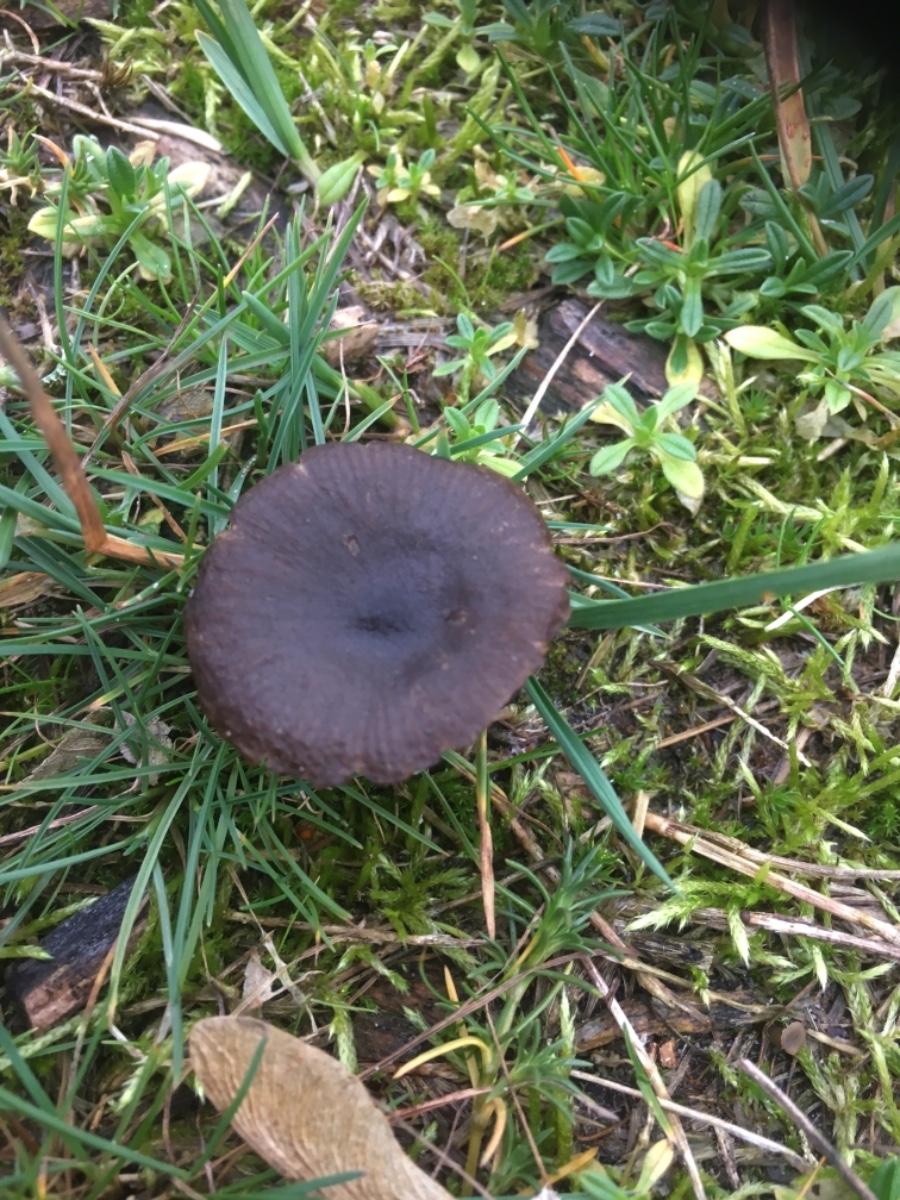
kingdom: Fungi
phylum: Basidiomycota
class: Agaricomycetes
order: Agaricales
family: Entolomataceae
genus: Entoloma
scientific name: Entoloma
